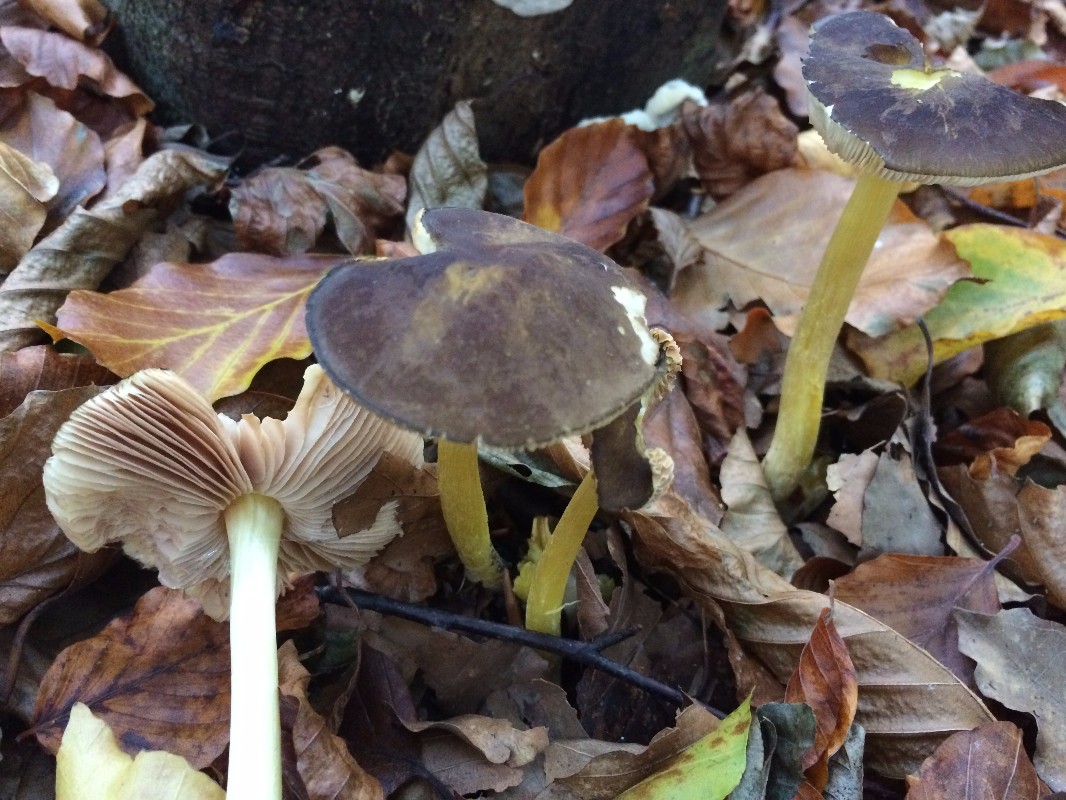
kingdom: Fungi
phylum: Basidiomycota
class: Agaricomycetes
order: Agaricales
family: Pluteaceae
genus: Pluteus
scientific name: Pluteus romellii
